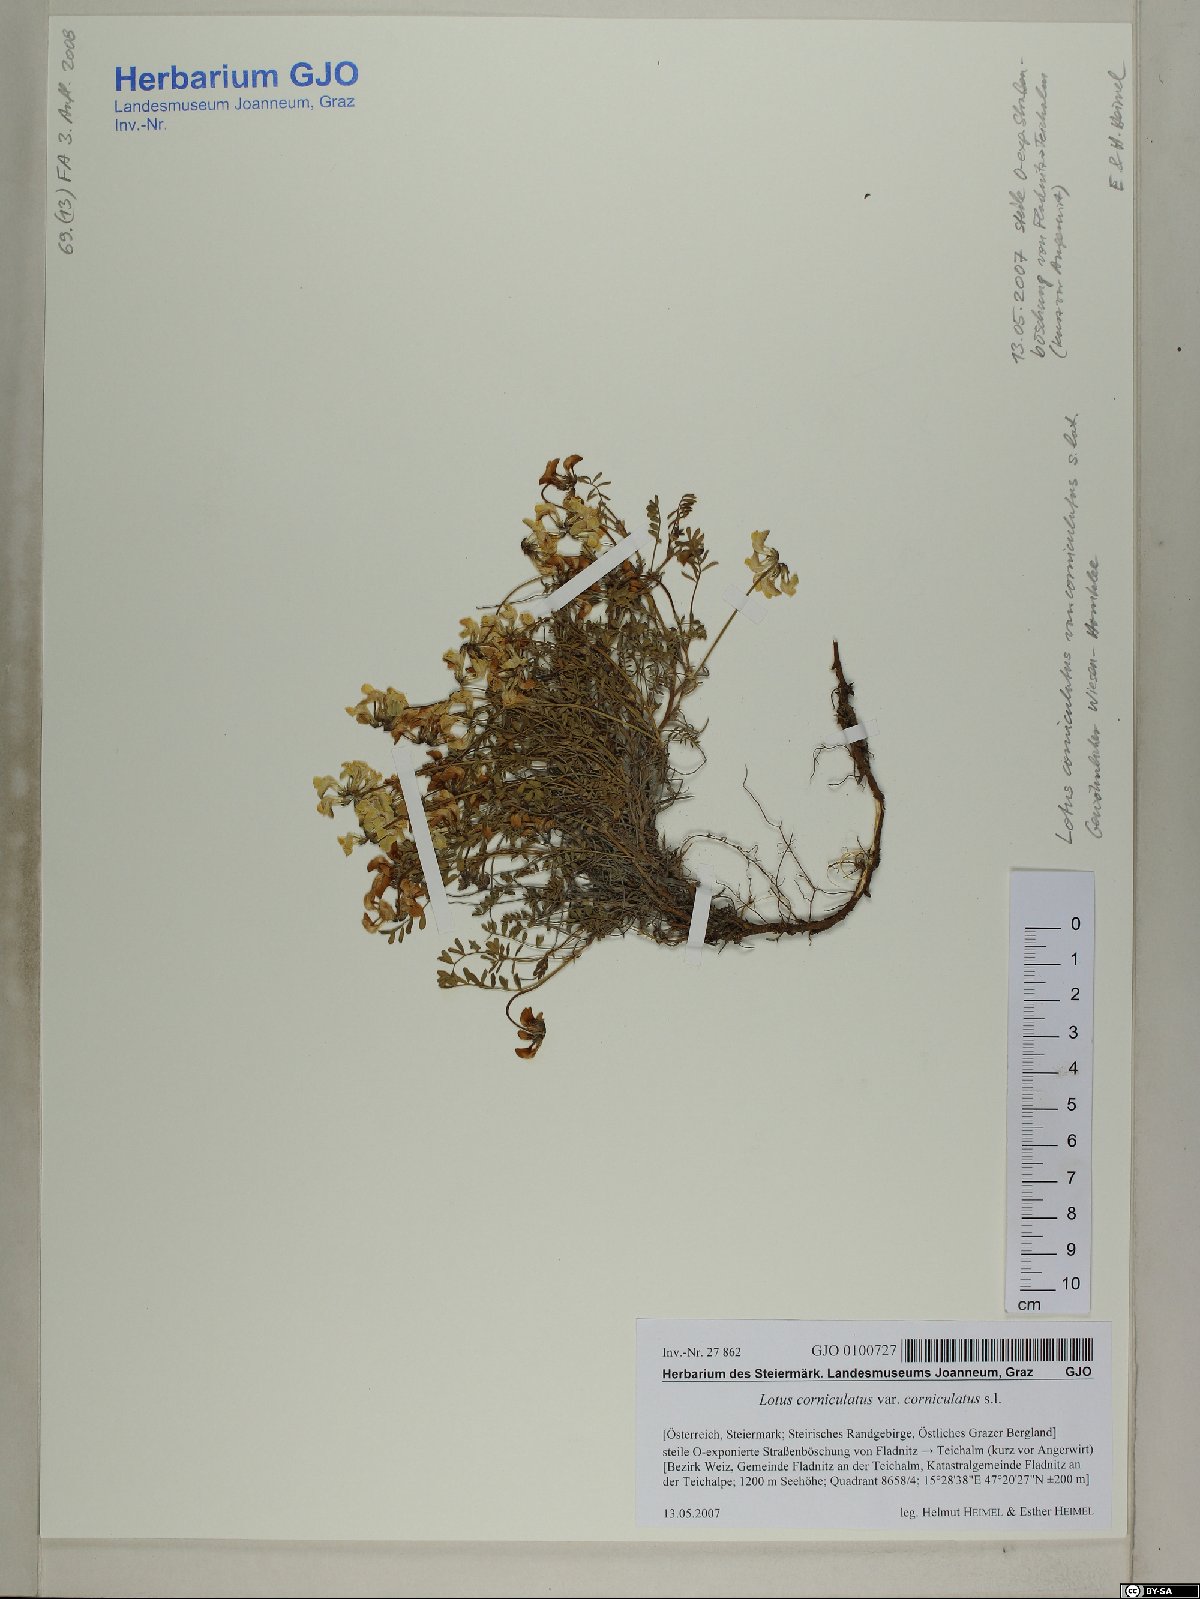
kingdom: Plantae
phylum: Tracheophyta
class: Magnoliopsida
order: Fabales
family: Fabaceae
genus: Lotus
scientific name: Lotus corniculatus
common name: Common bird's-foot-trefoil
